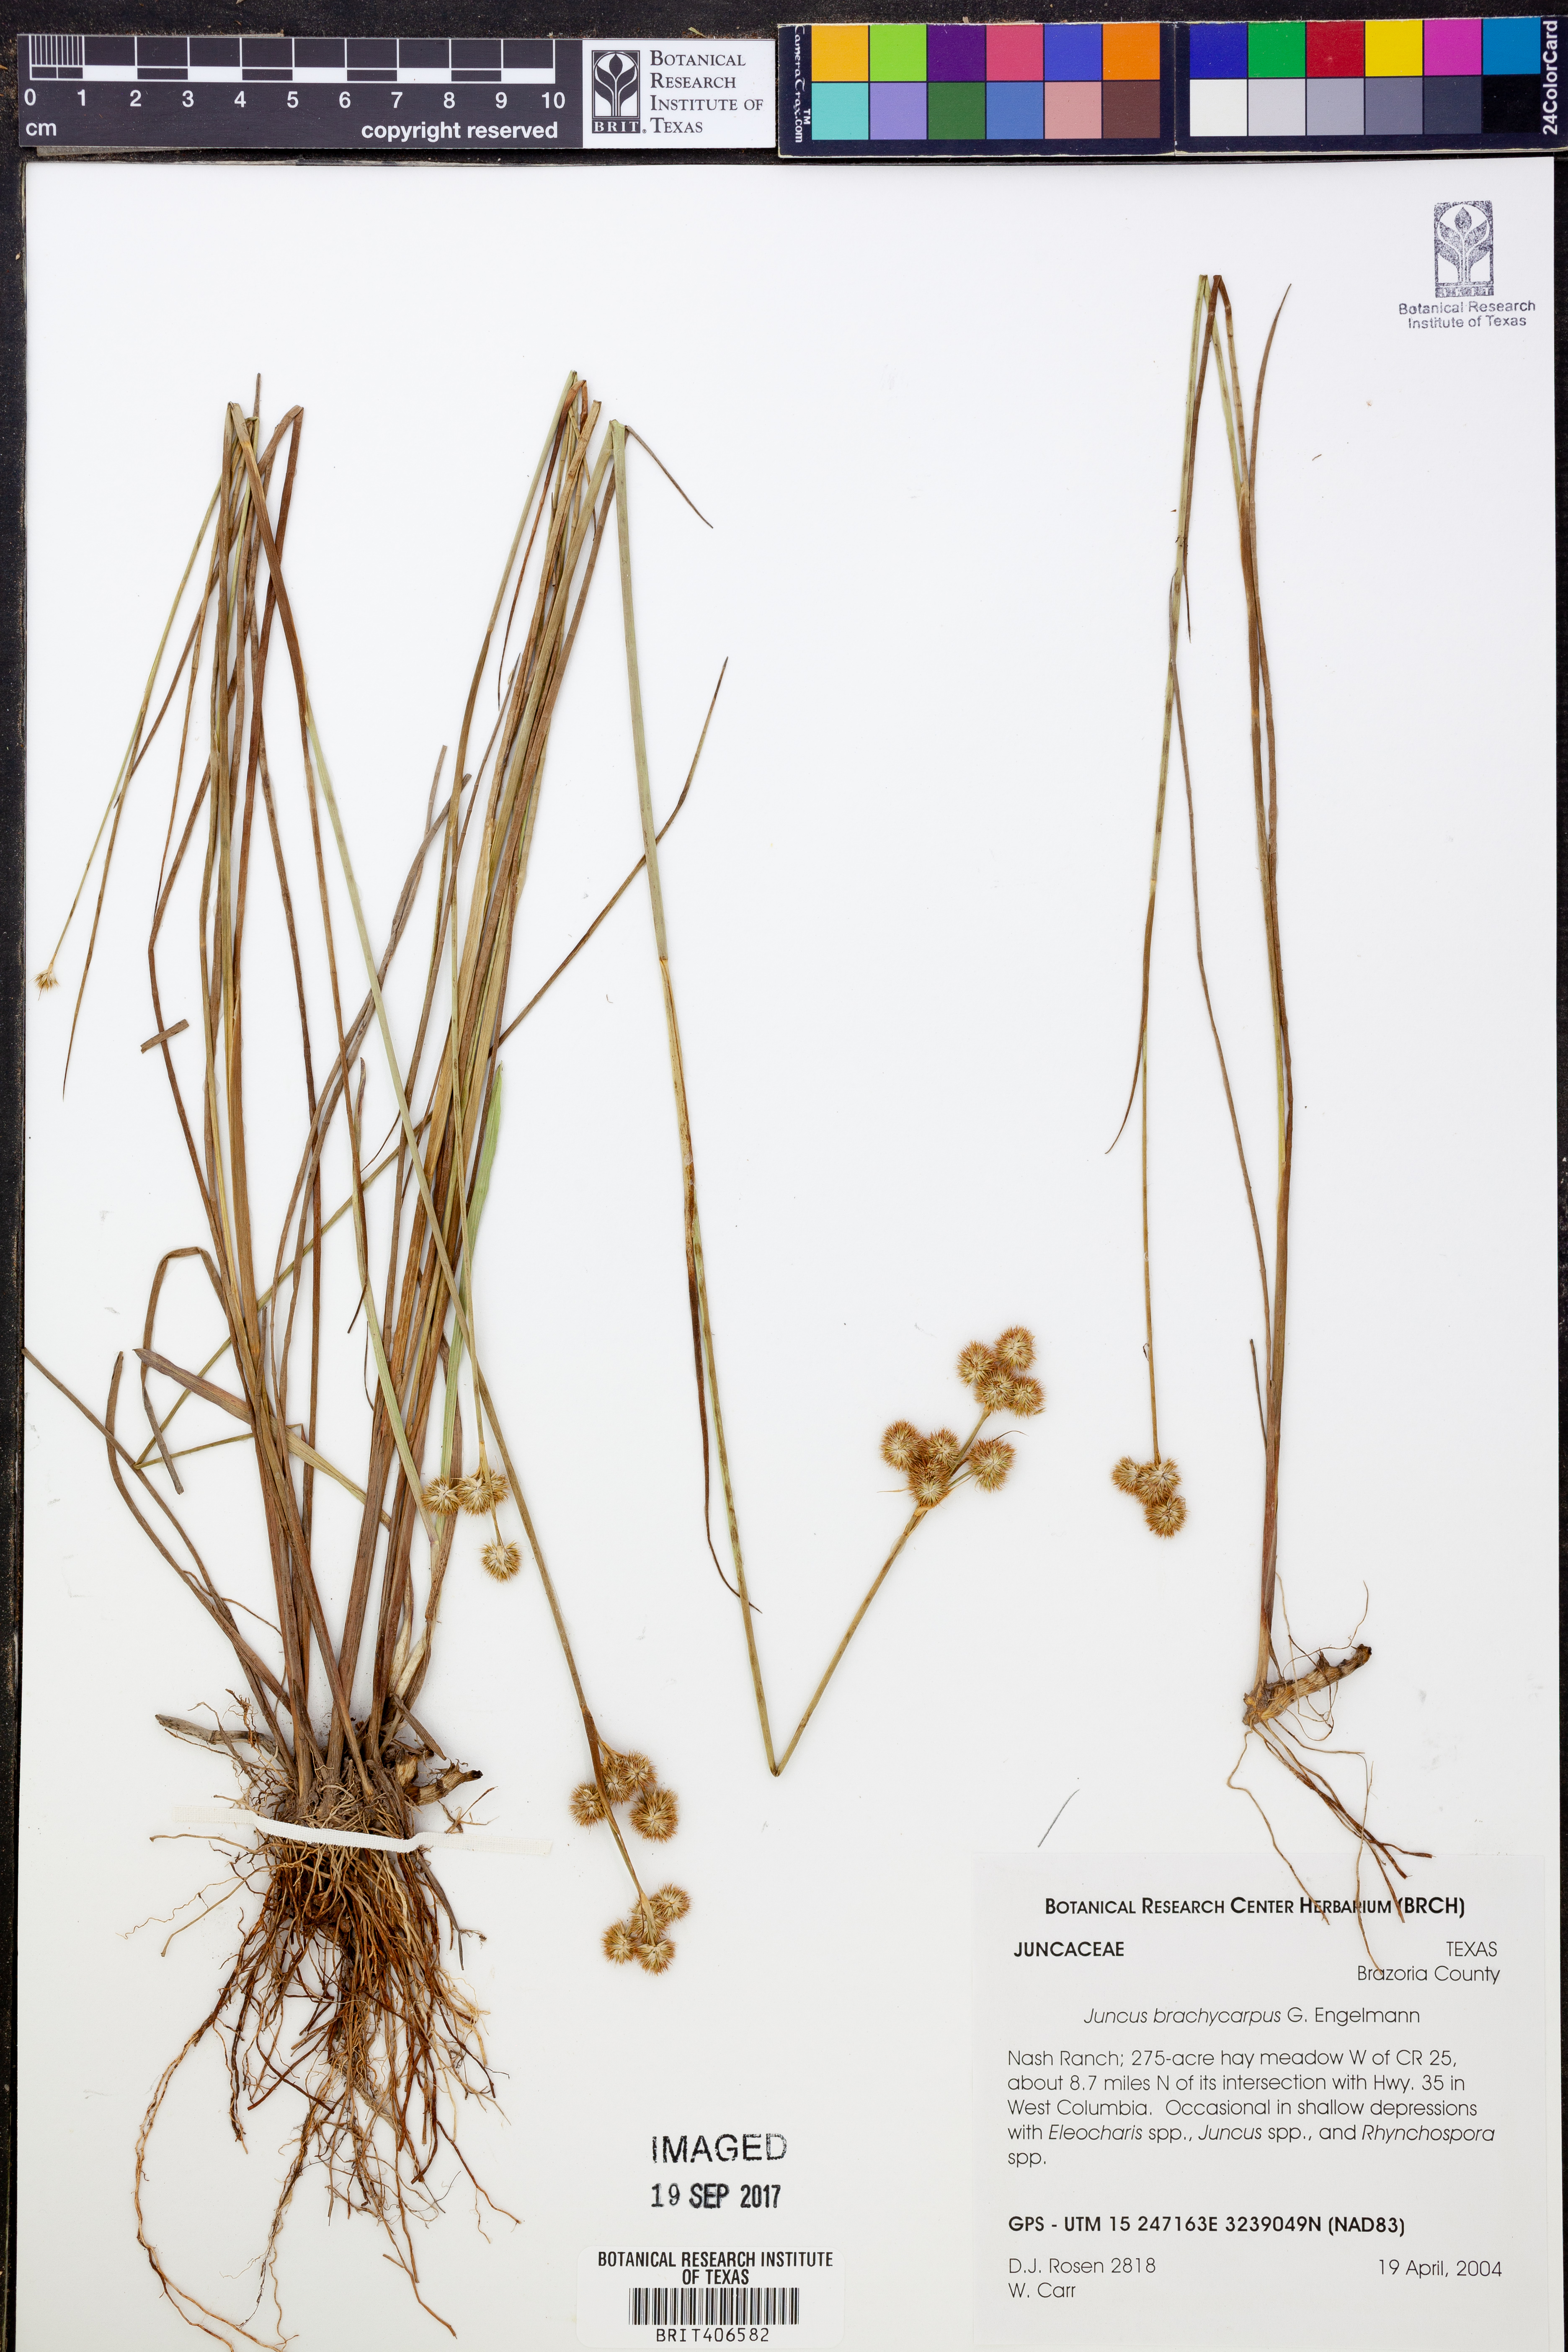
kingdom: Plantae
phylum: Tracheophyta
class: Liliopsida
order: Poales
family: Juncaceae
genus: Juncus
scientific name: Juncus brachycarpus
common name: Shore rush
